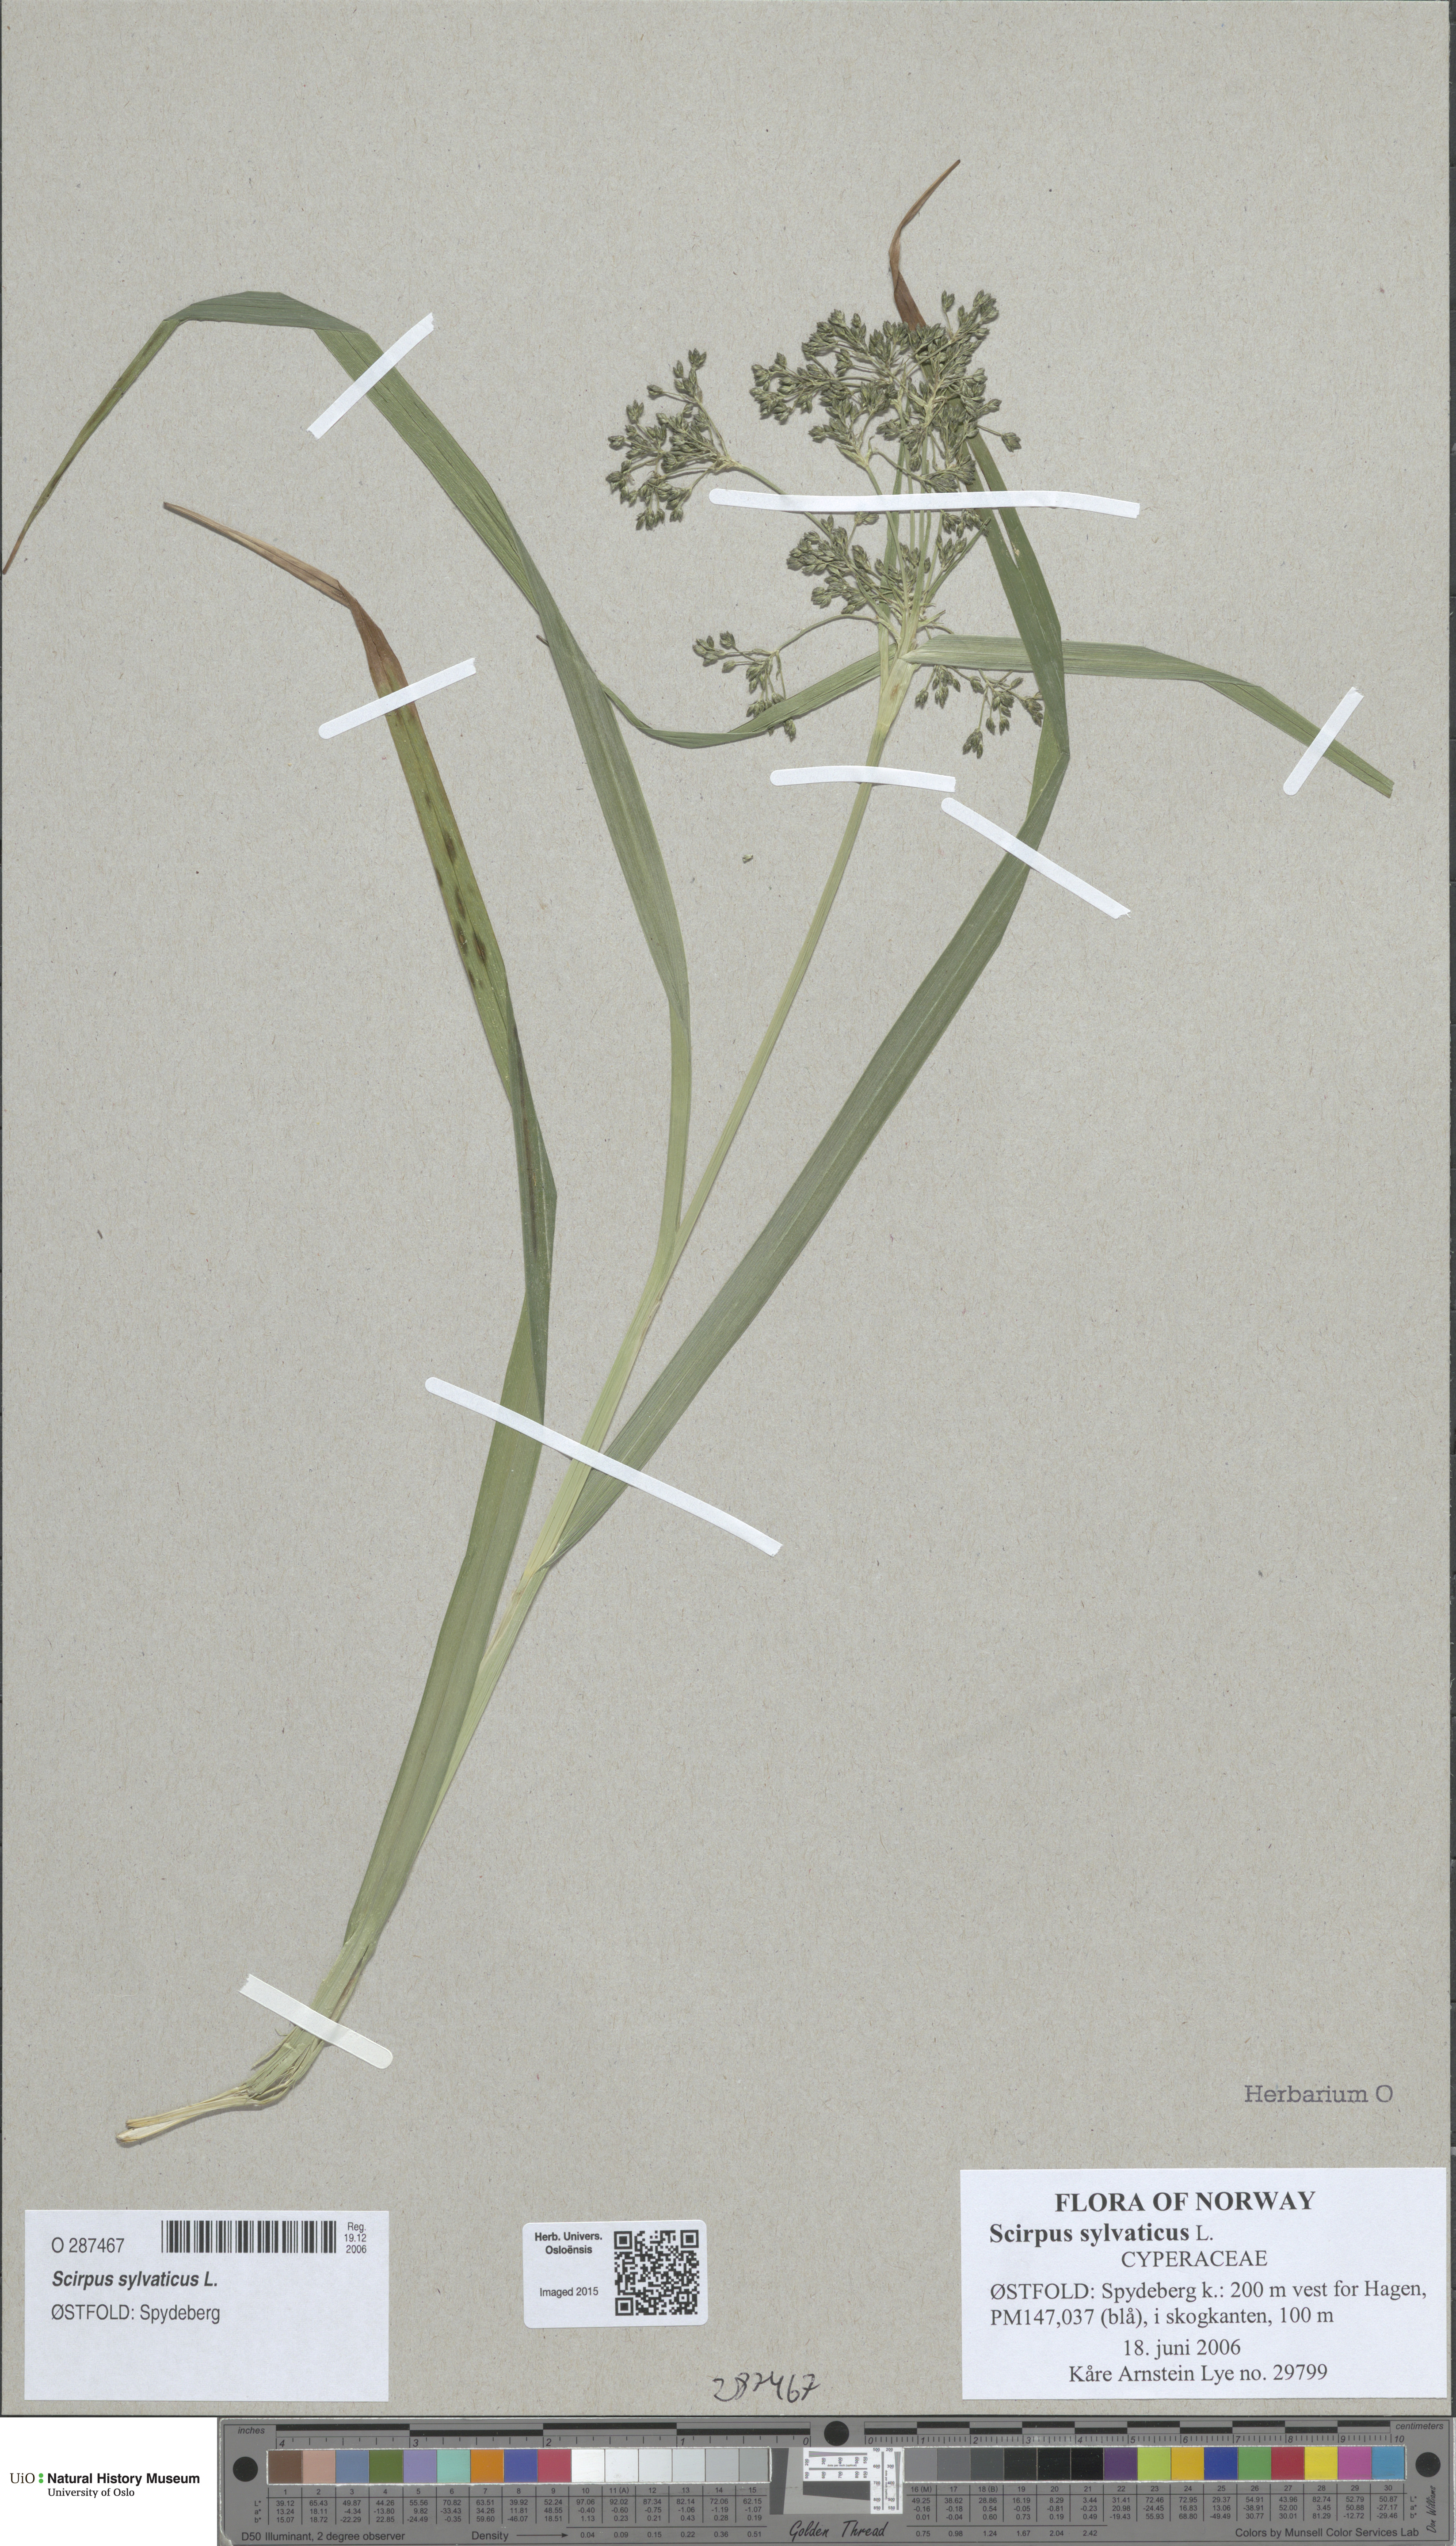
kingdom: Plantae
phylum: Tracheophyta
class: Liliopsida
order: Poales
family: Cyperaceae
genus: Scirpus
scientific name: Scirpus sylvaticus
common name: Wood club-rush
